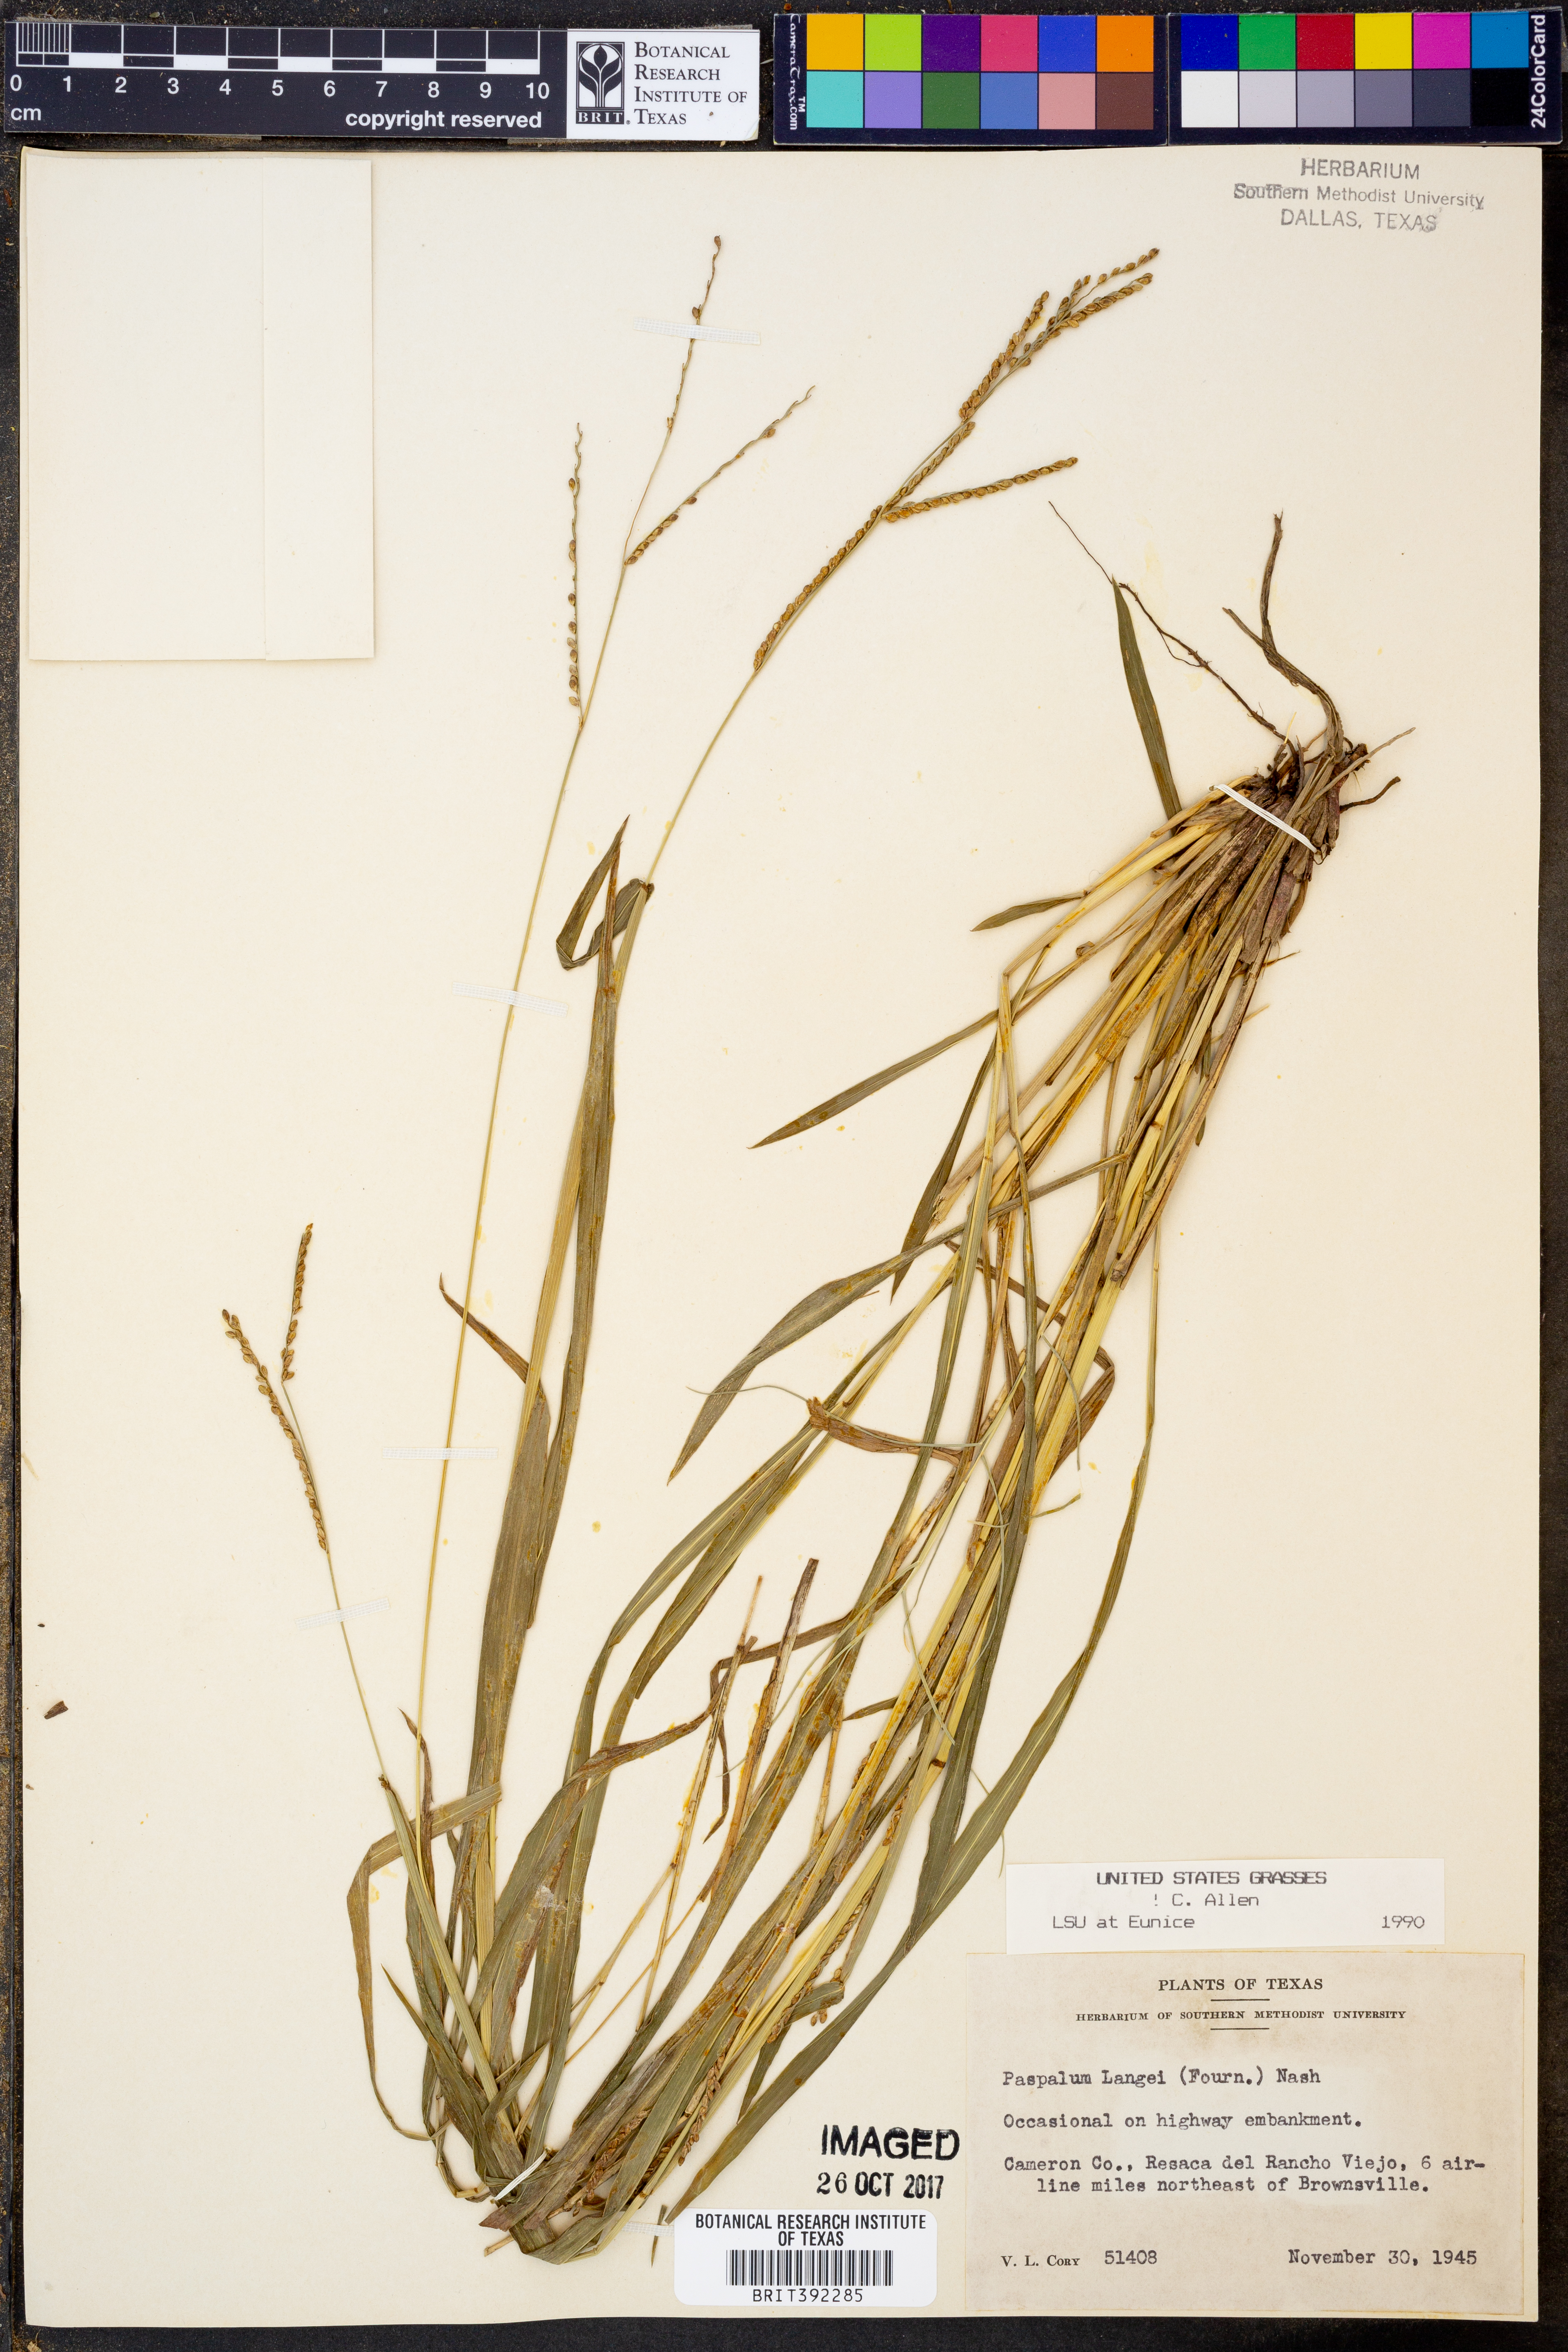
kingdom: Plantae
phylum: Tracheophyta
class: Liliopsida
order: Poales
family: Poaceae
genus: Paspalum
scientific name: Paspalum langei
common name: Rusty-seed paspalum
